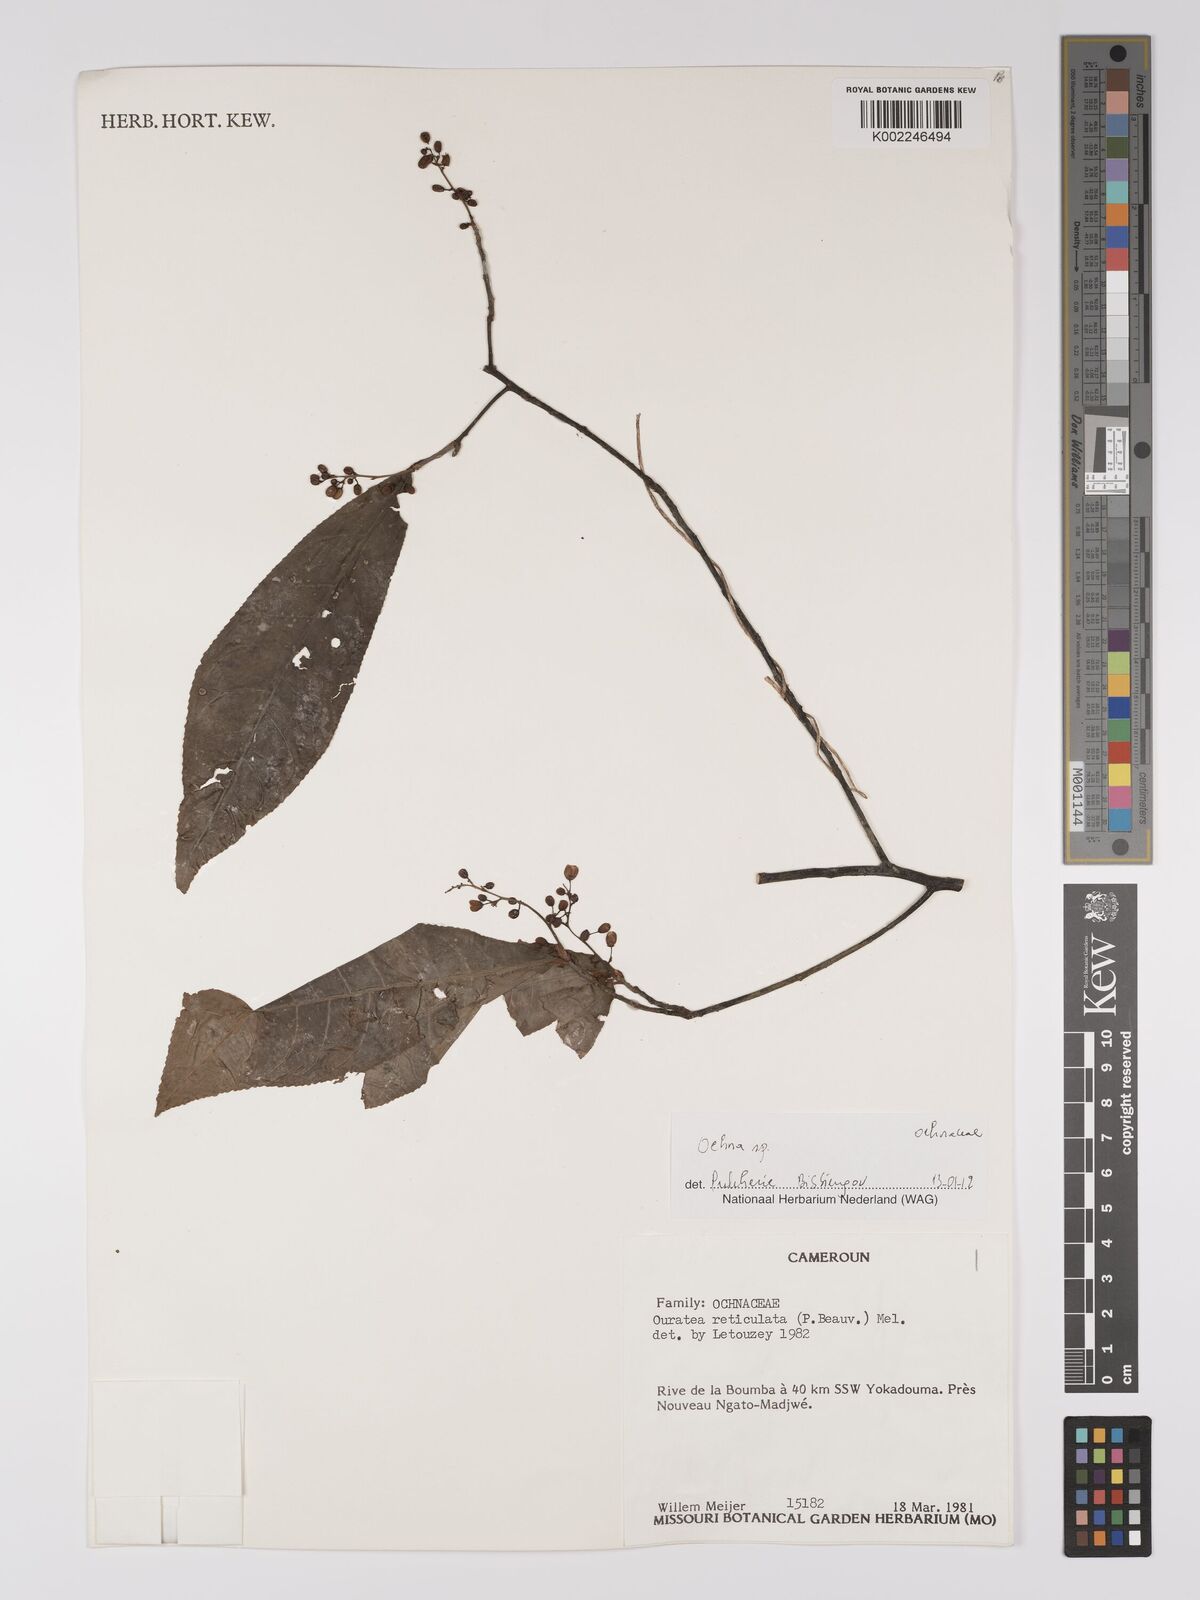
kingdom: Plantae
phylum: Tracheophyta
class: Magnoliopsida
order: Malpighiales
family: Ochnaceae
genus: Ochna
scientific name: Ochna
